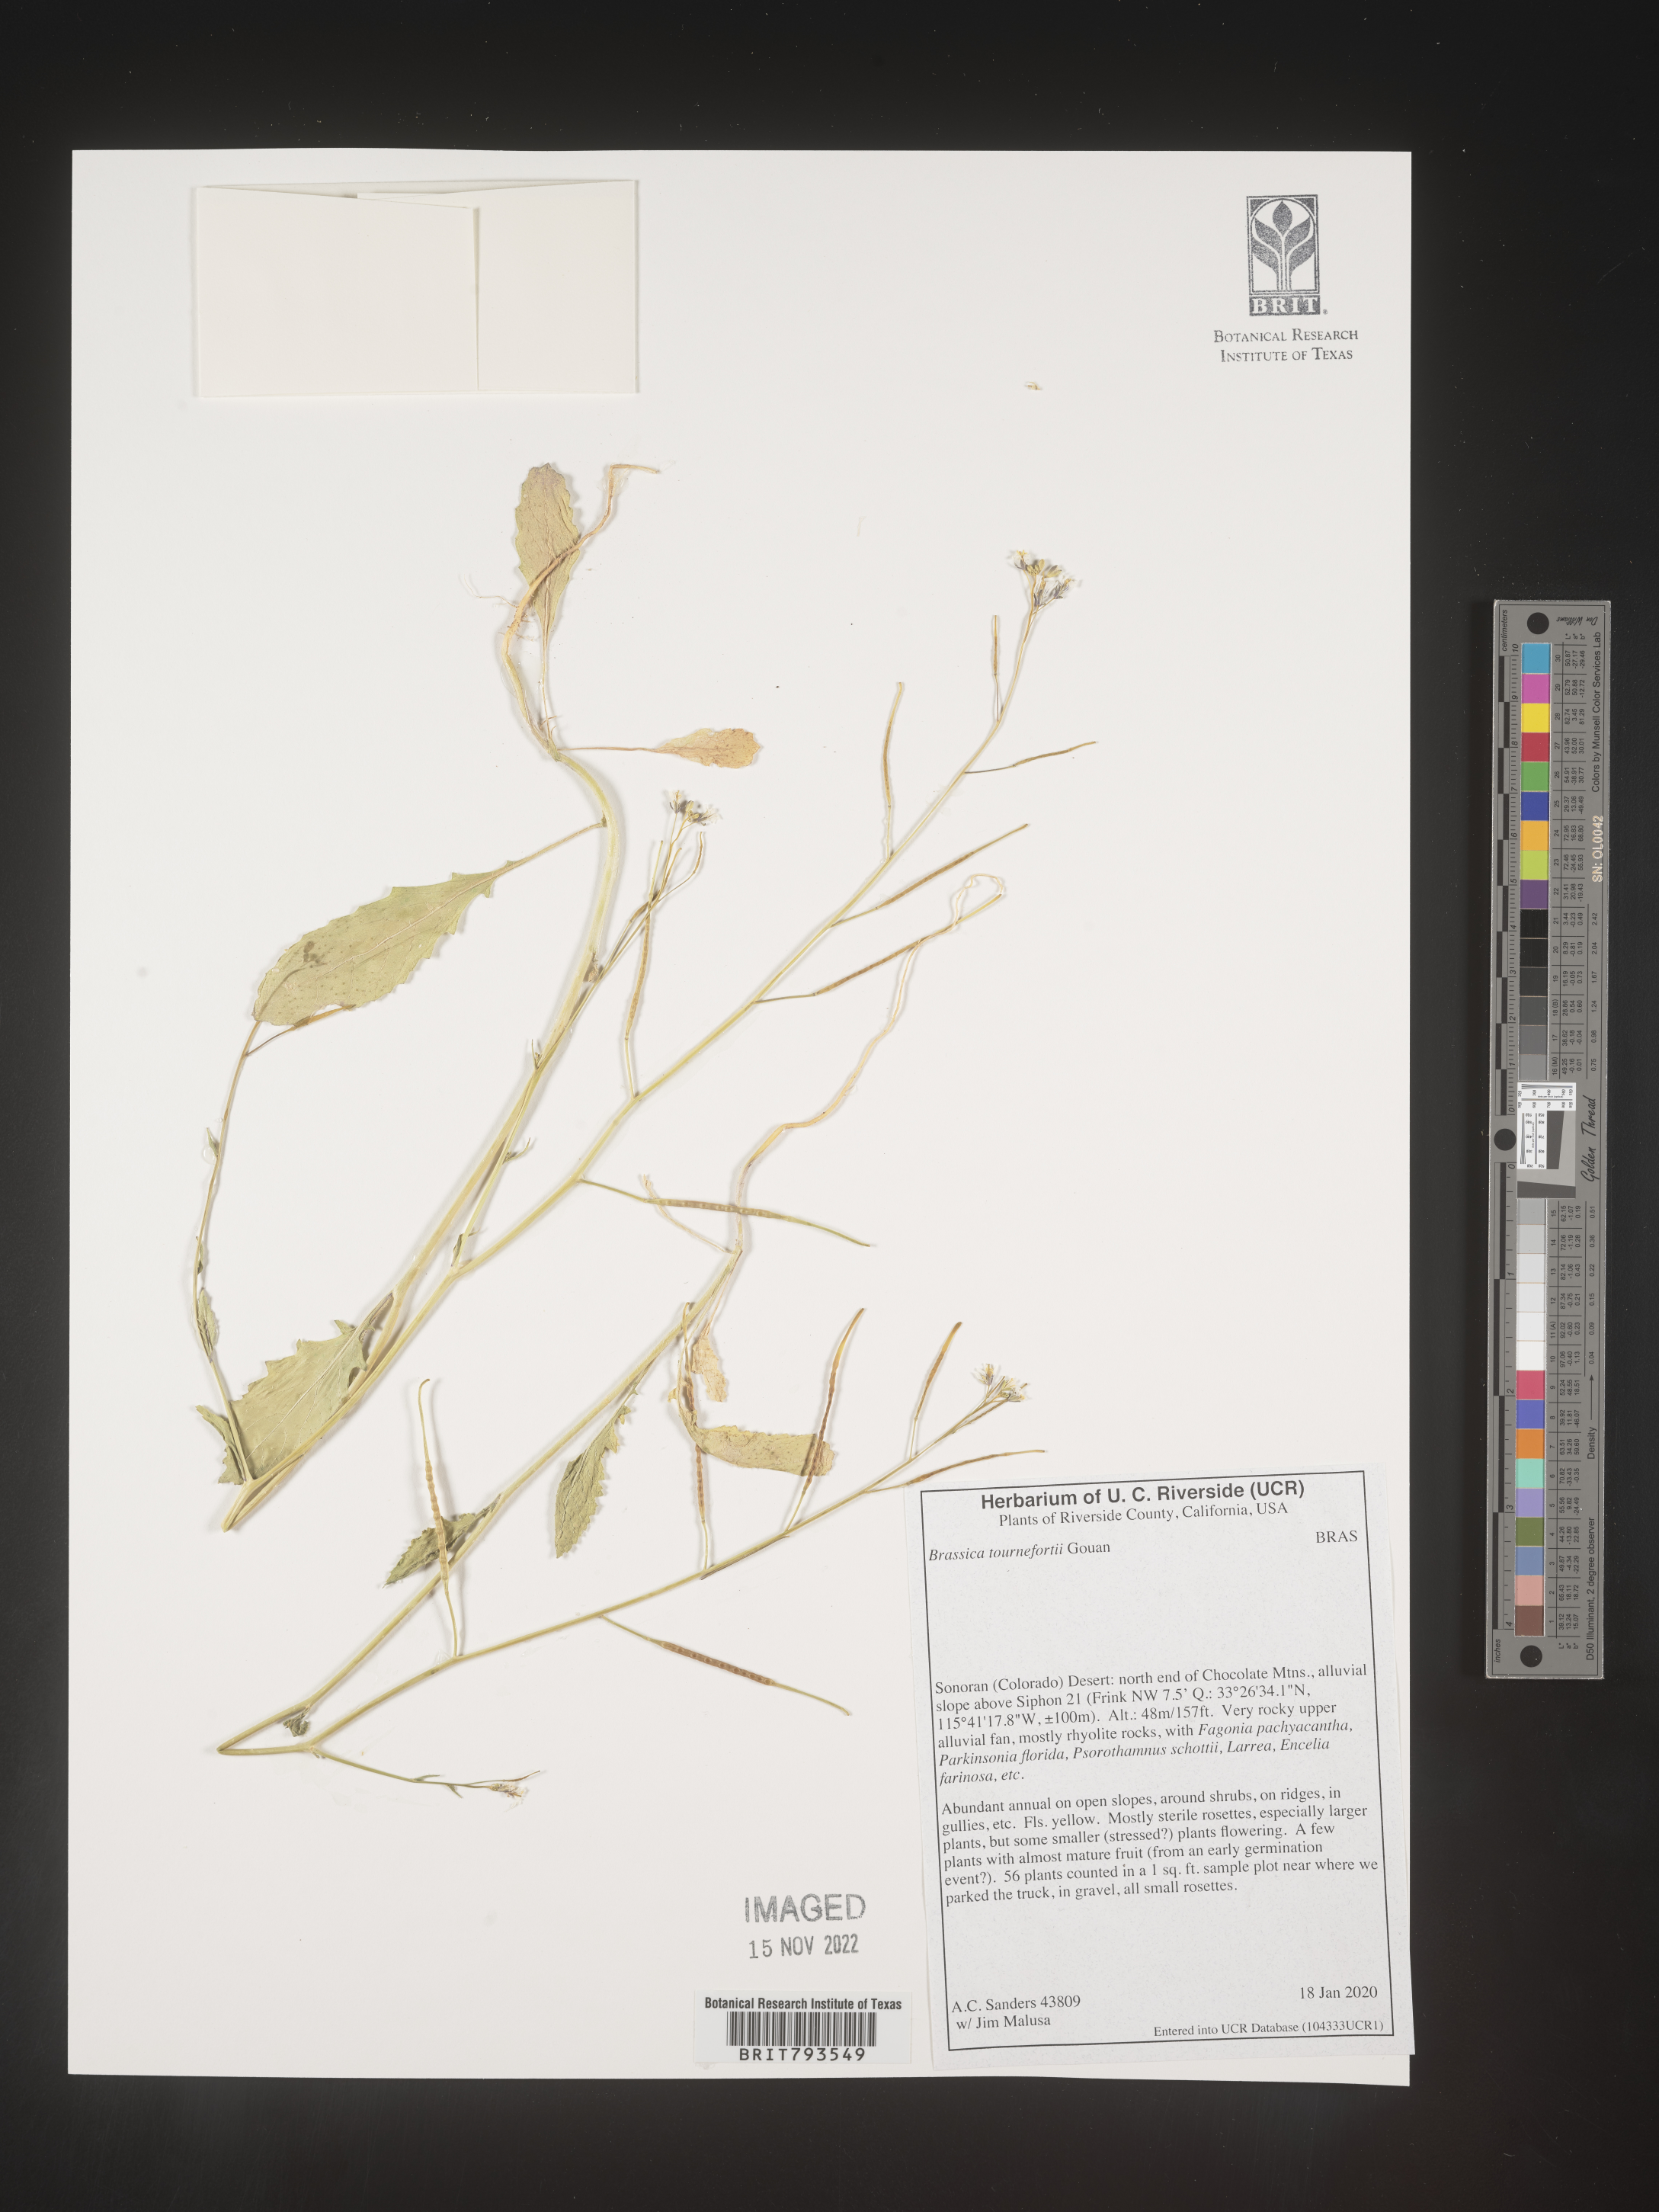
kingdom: Plantae
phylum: Tracheophyta
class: Magnoliopsida
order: Brassicales
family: Brassicaceae
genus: Brassica
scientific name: Brassica tournefortii
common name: Pale cabbage
